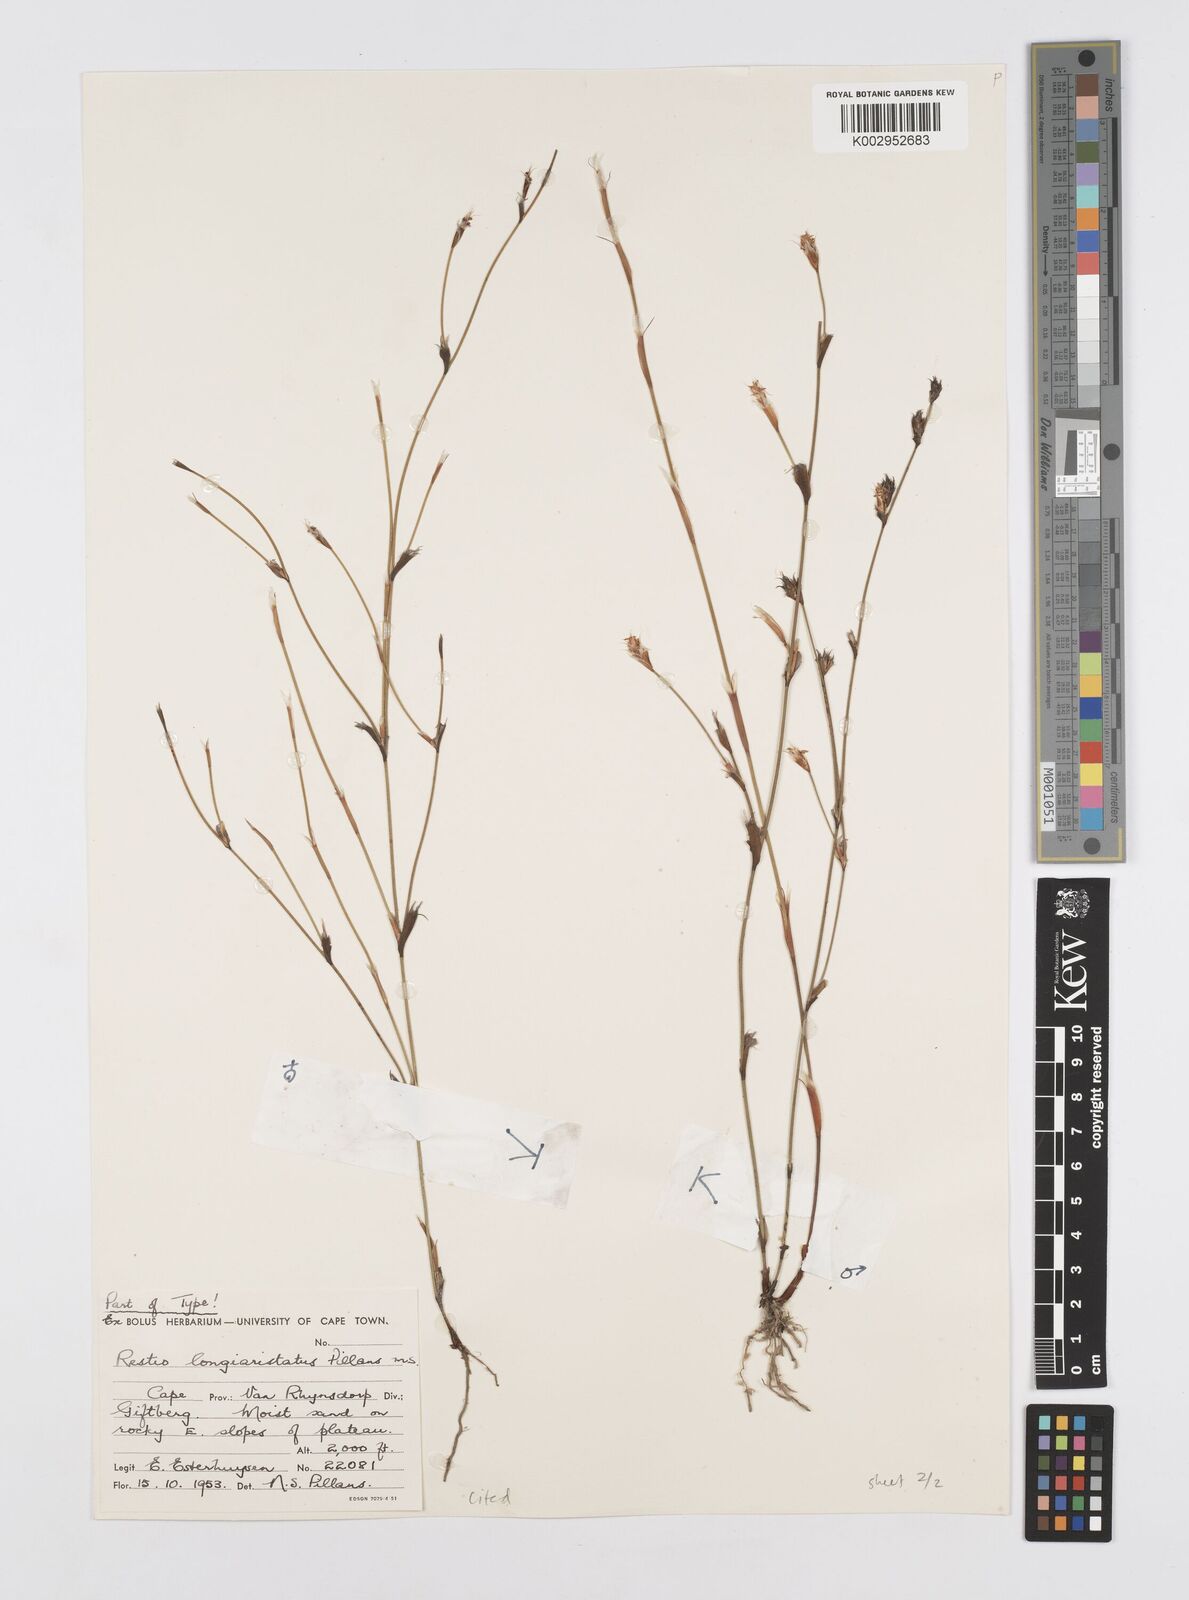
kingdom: Plantae
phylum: Tracheophyta
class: Liliopsida
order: Poales
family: Restionaceae
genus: Restio
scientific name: Restio longiaristatus
